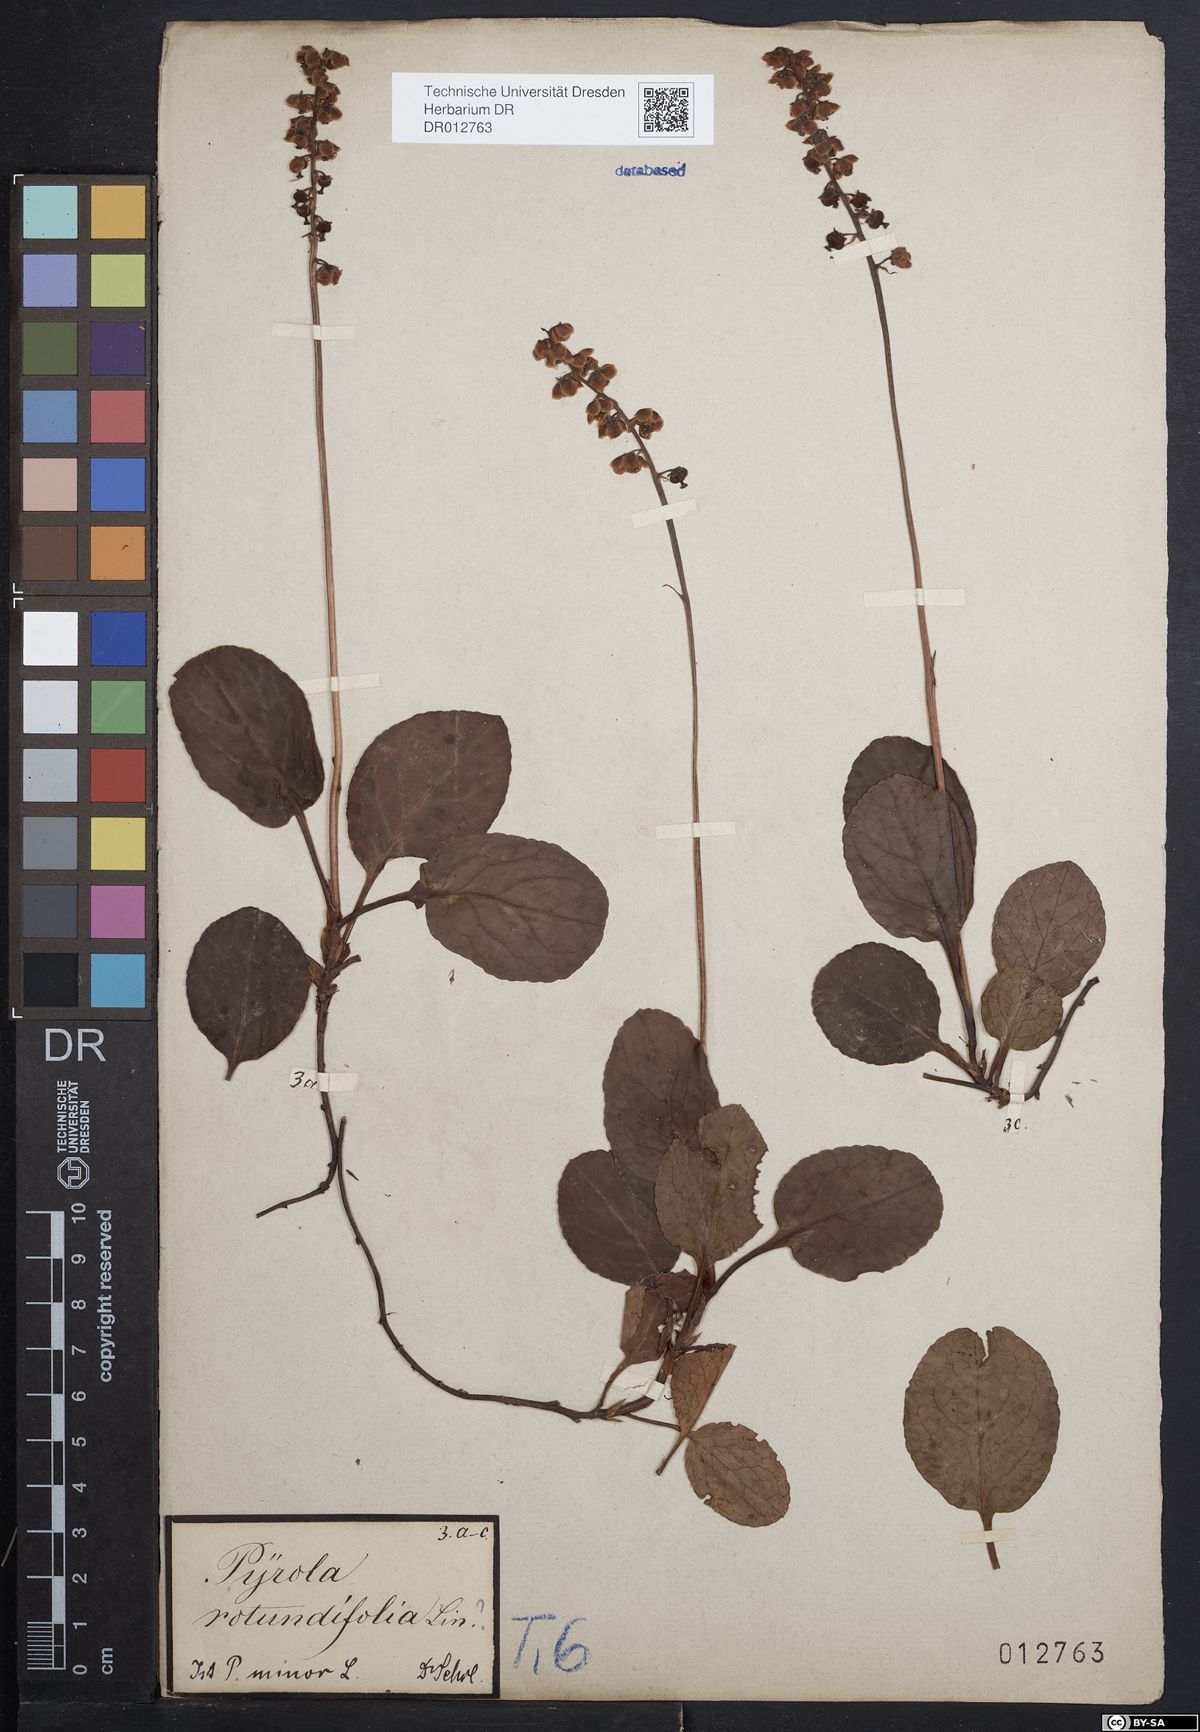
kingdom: Plantae
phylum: Tracheophyta
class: Magnoliopsida
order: Ericales
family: Ericaceae
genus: Pyrola
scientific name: Pyrola minor
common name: Common wintergreen
